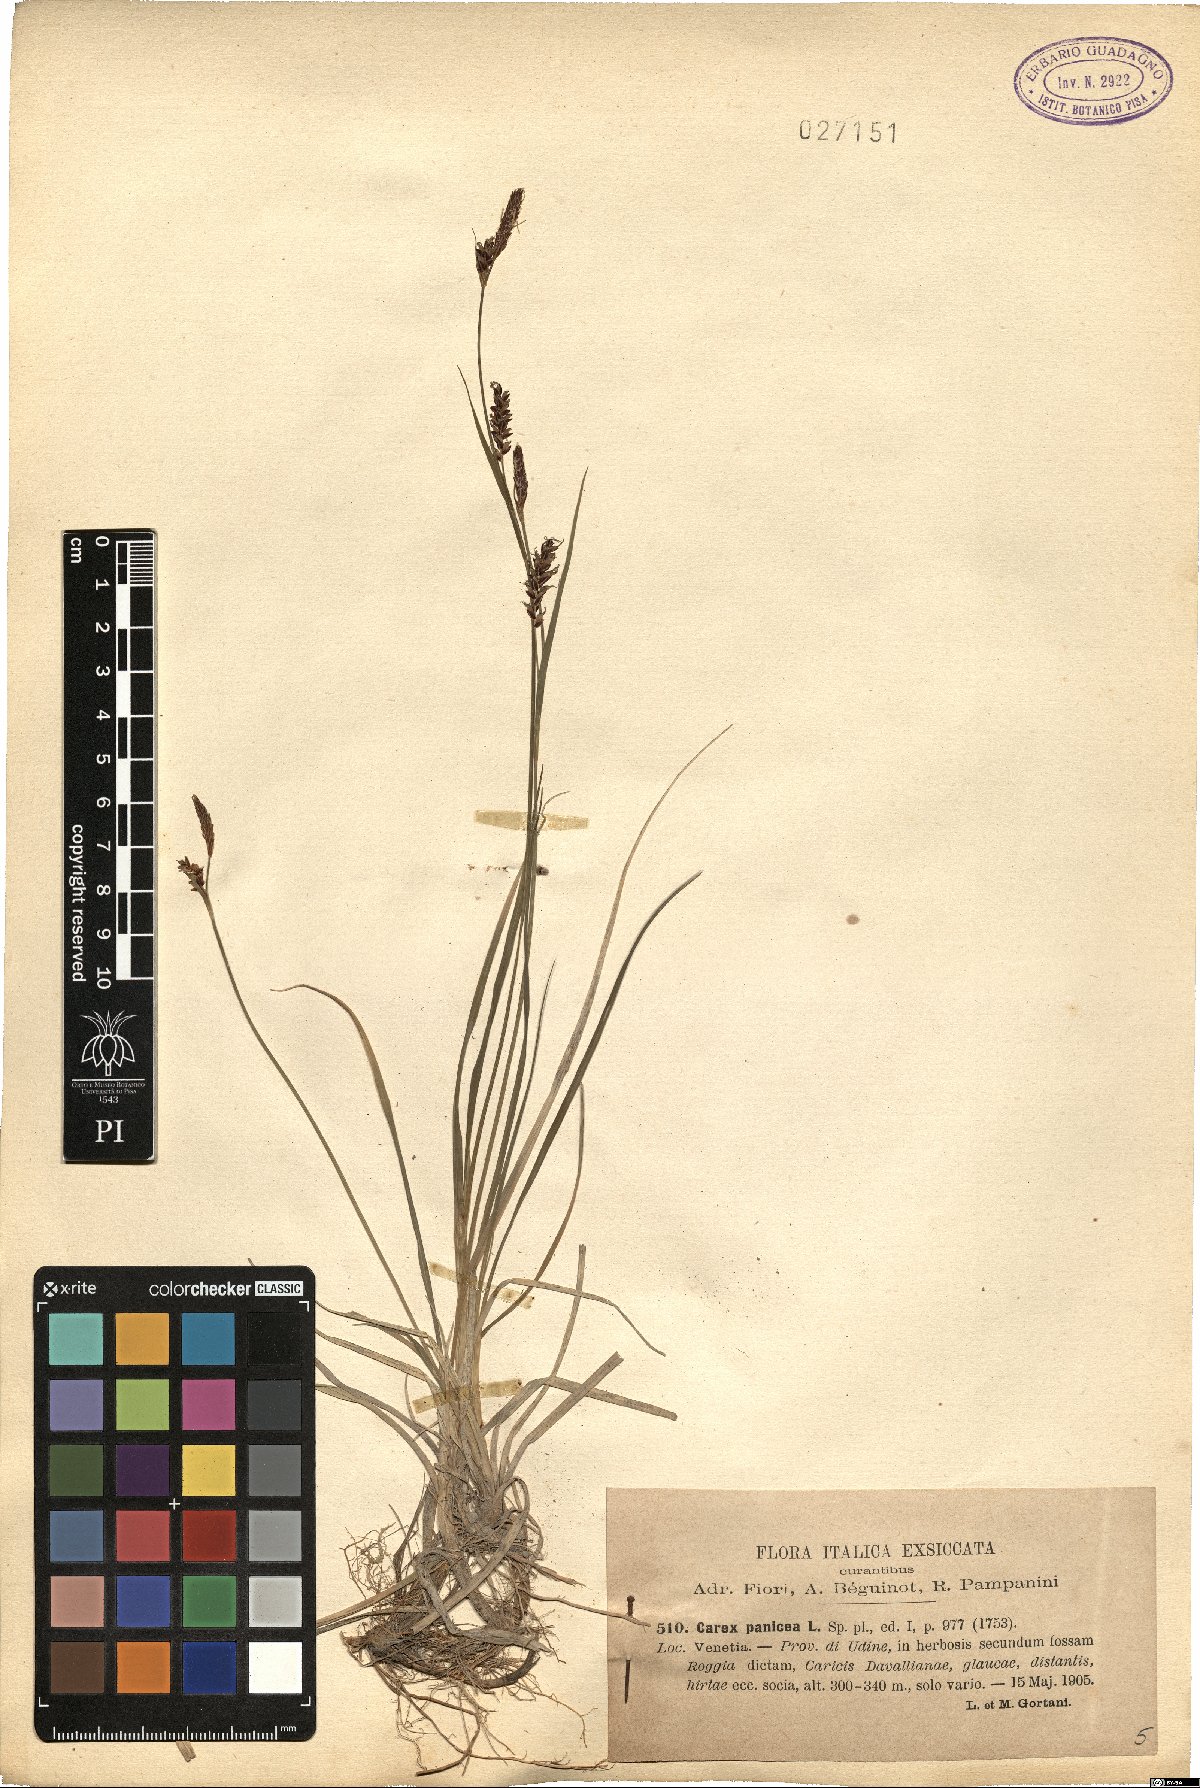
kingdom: Plantae
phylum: Tracheophyta
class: Liliopsida
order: Poales
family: Cyperaceae
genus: Carex
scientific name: Carex panicea
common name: Carnation sedge
